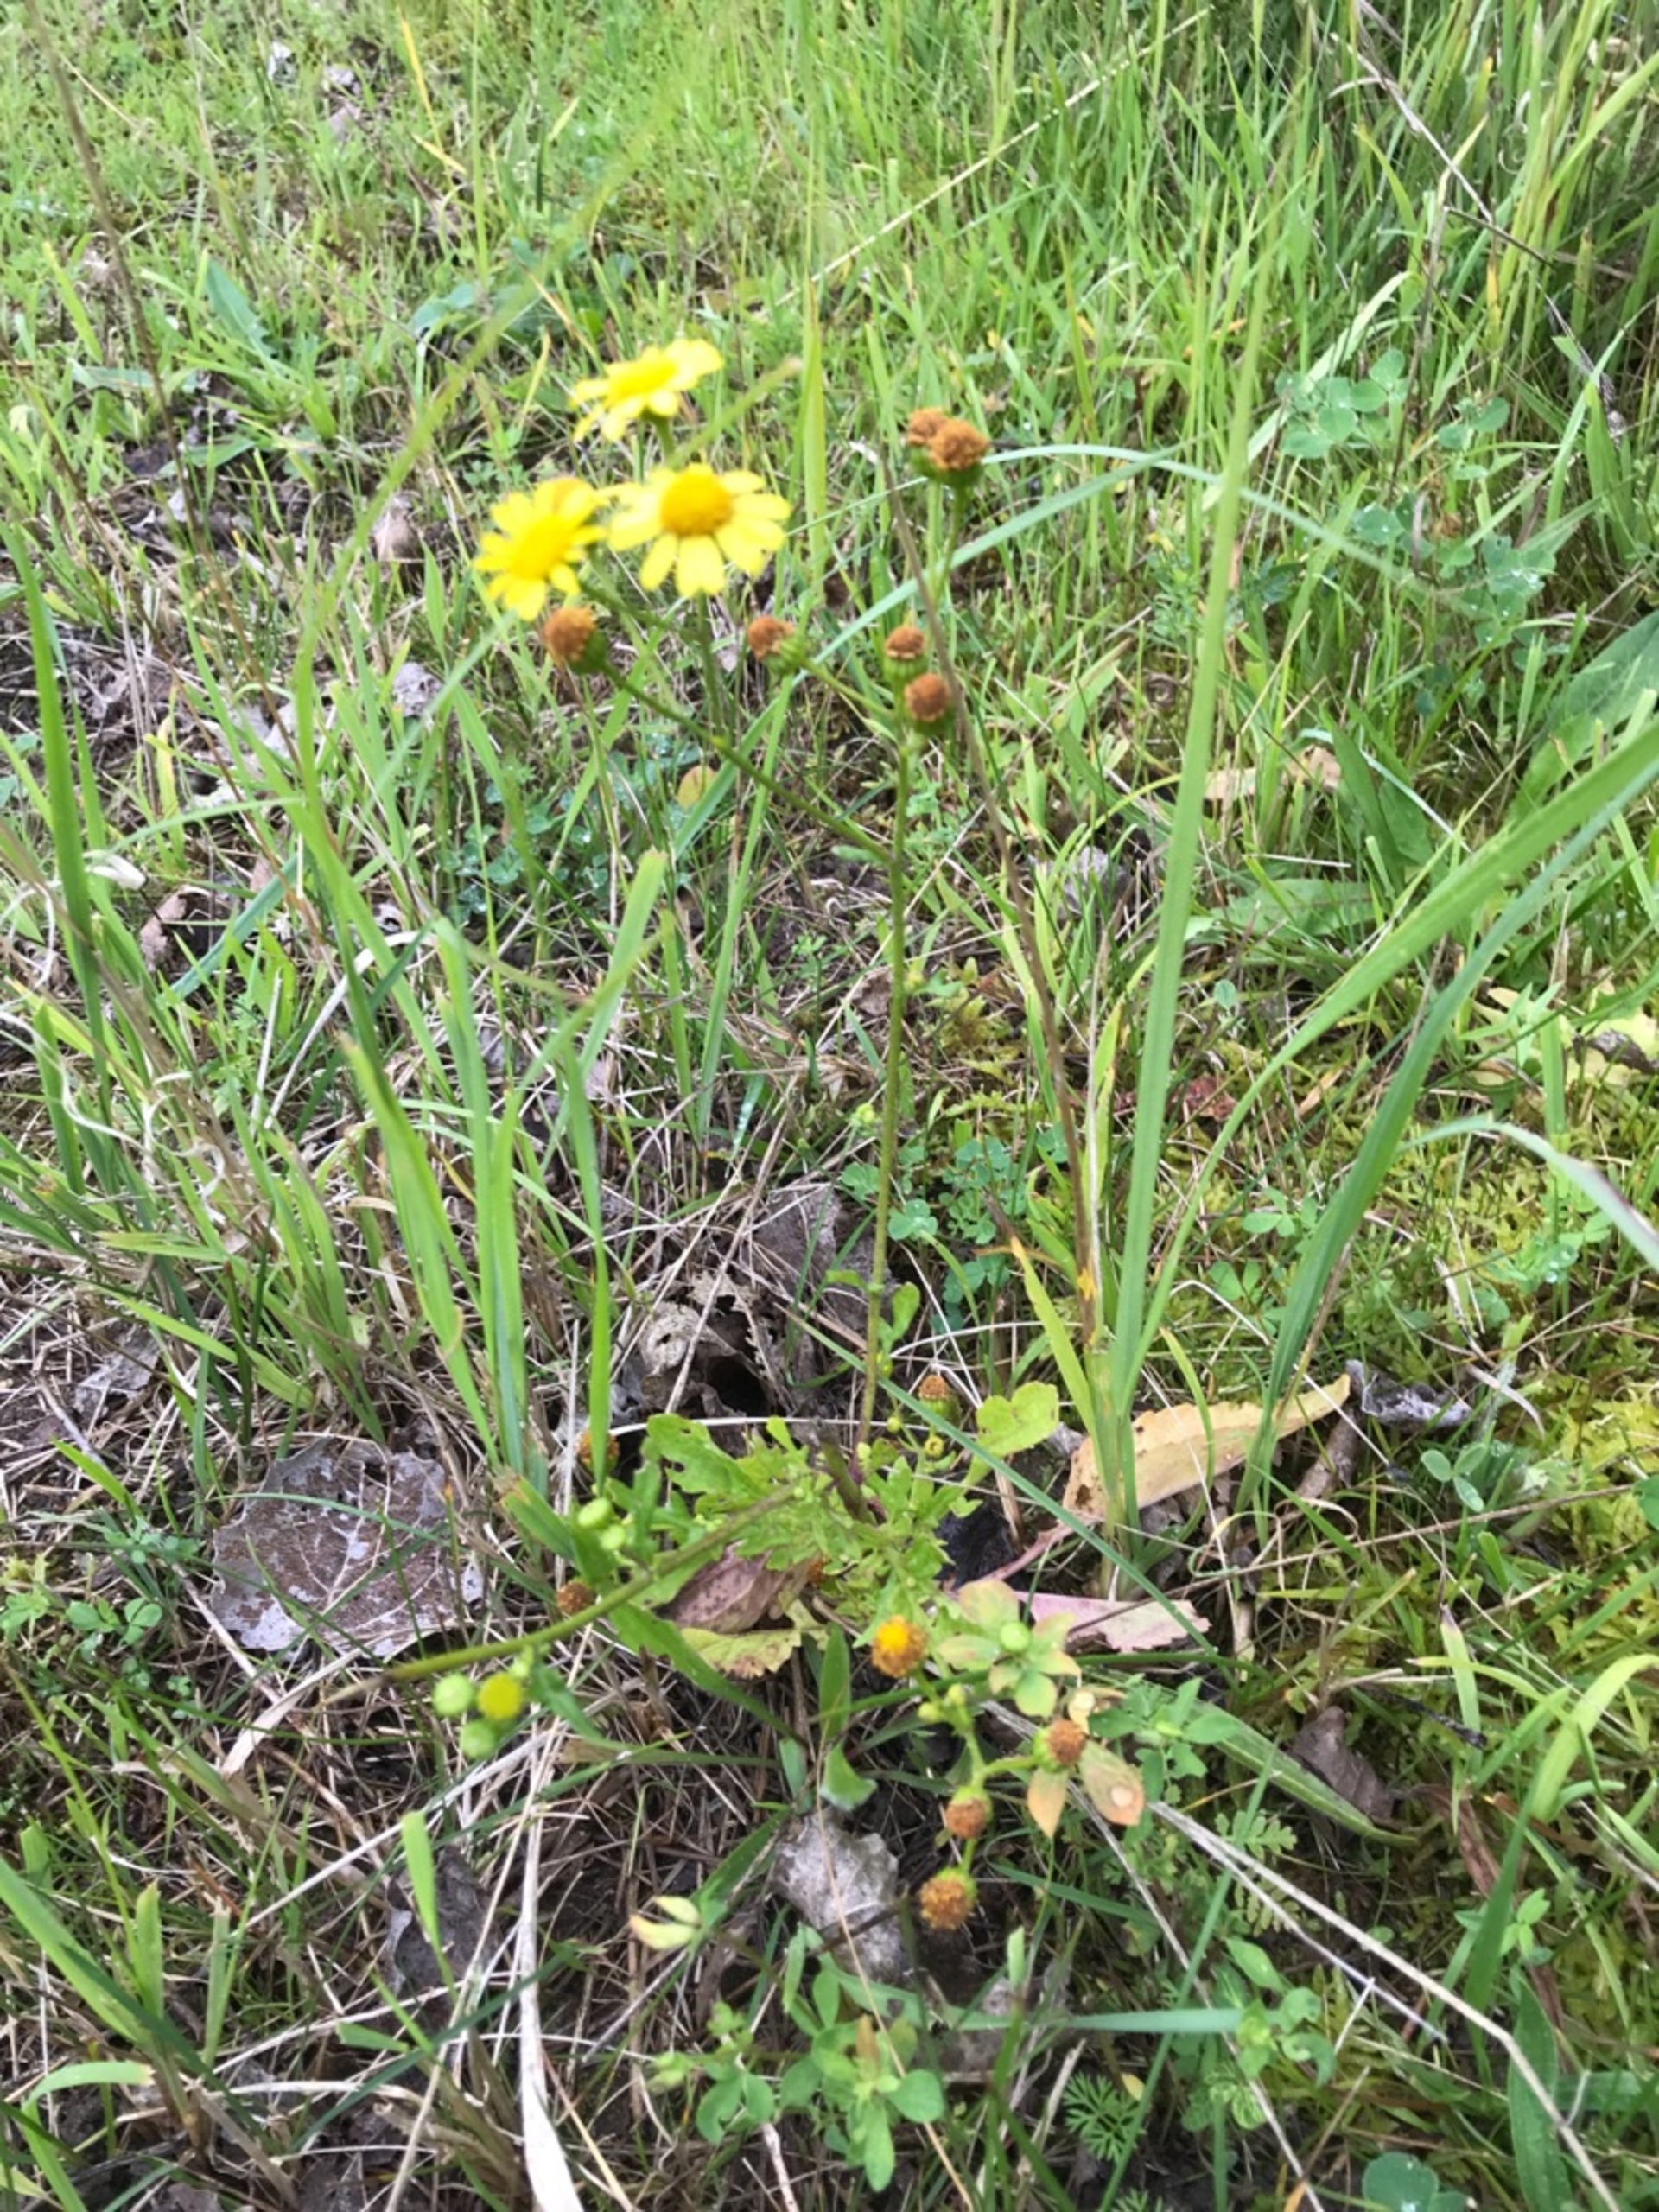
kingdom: Plantae
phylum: Tracheophyta
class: Magnoliopsida
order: Asterales
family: Asteraceae
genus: Jacobaea
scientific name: Jacobaea erratica
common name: Småblomstret brandbæger
